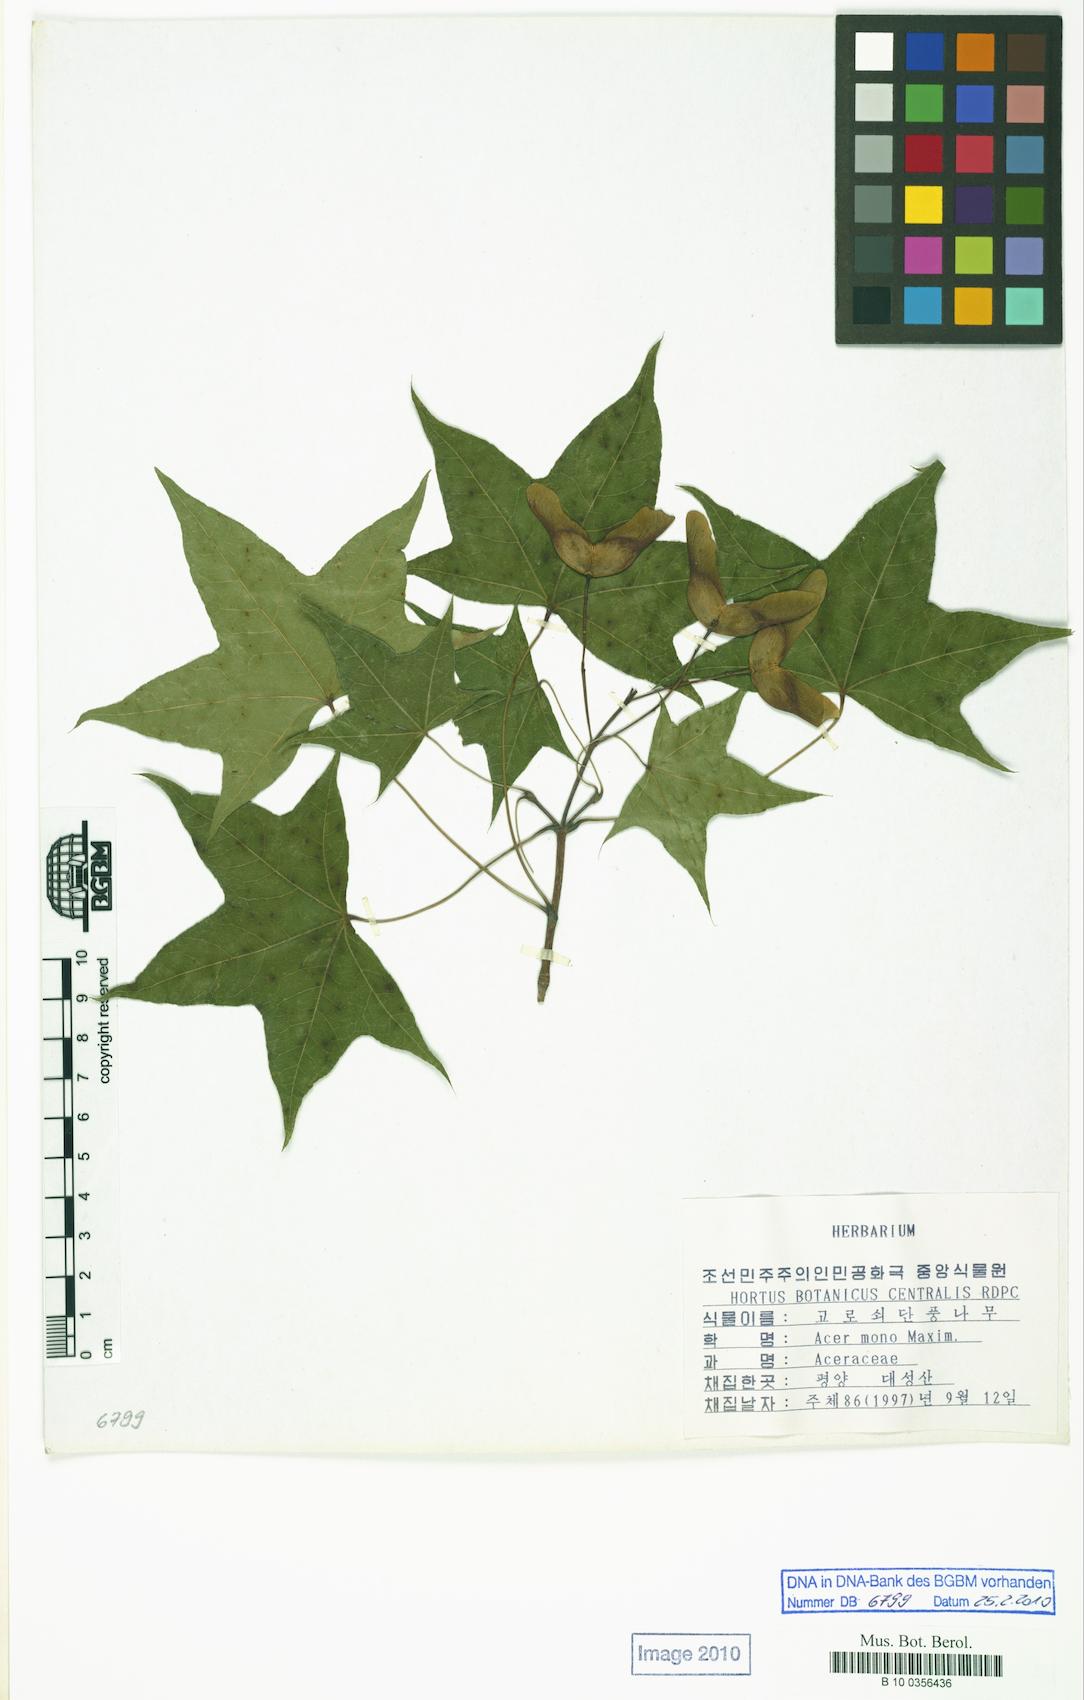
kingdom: Plantae
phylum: Tracheophyta
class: Magnoliopsida
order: Sapindales
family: Sapindaceae
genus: Acer
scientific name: Acer pictum
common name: The painted maple
